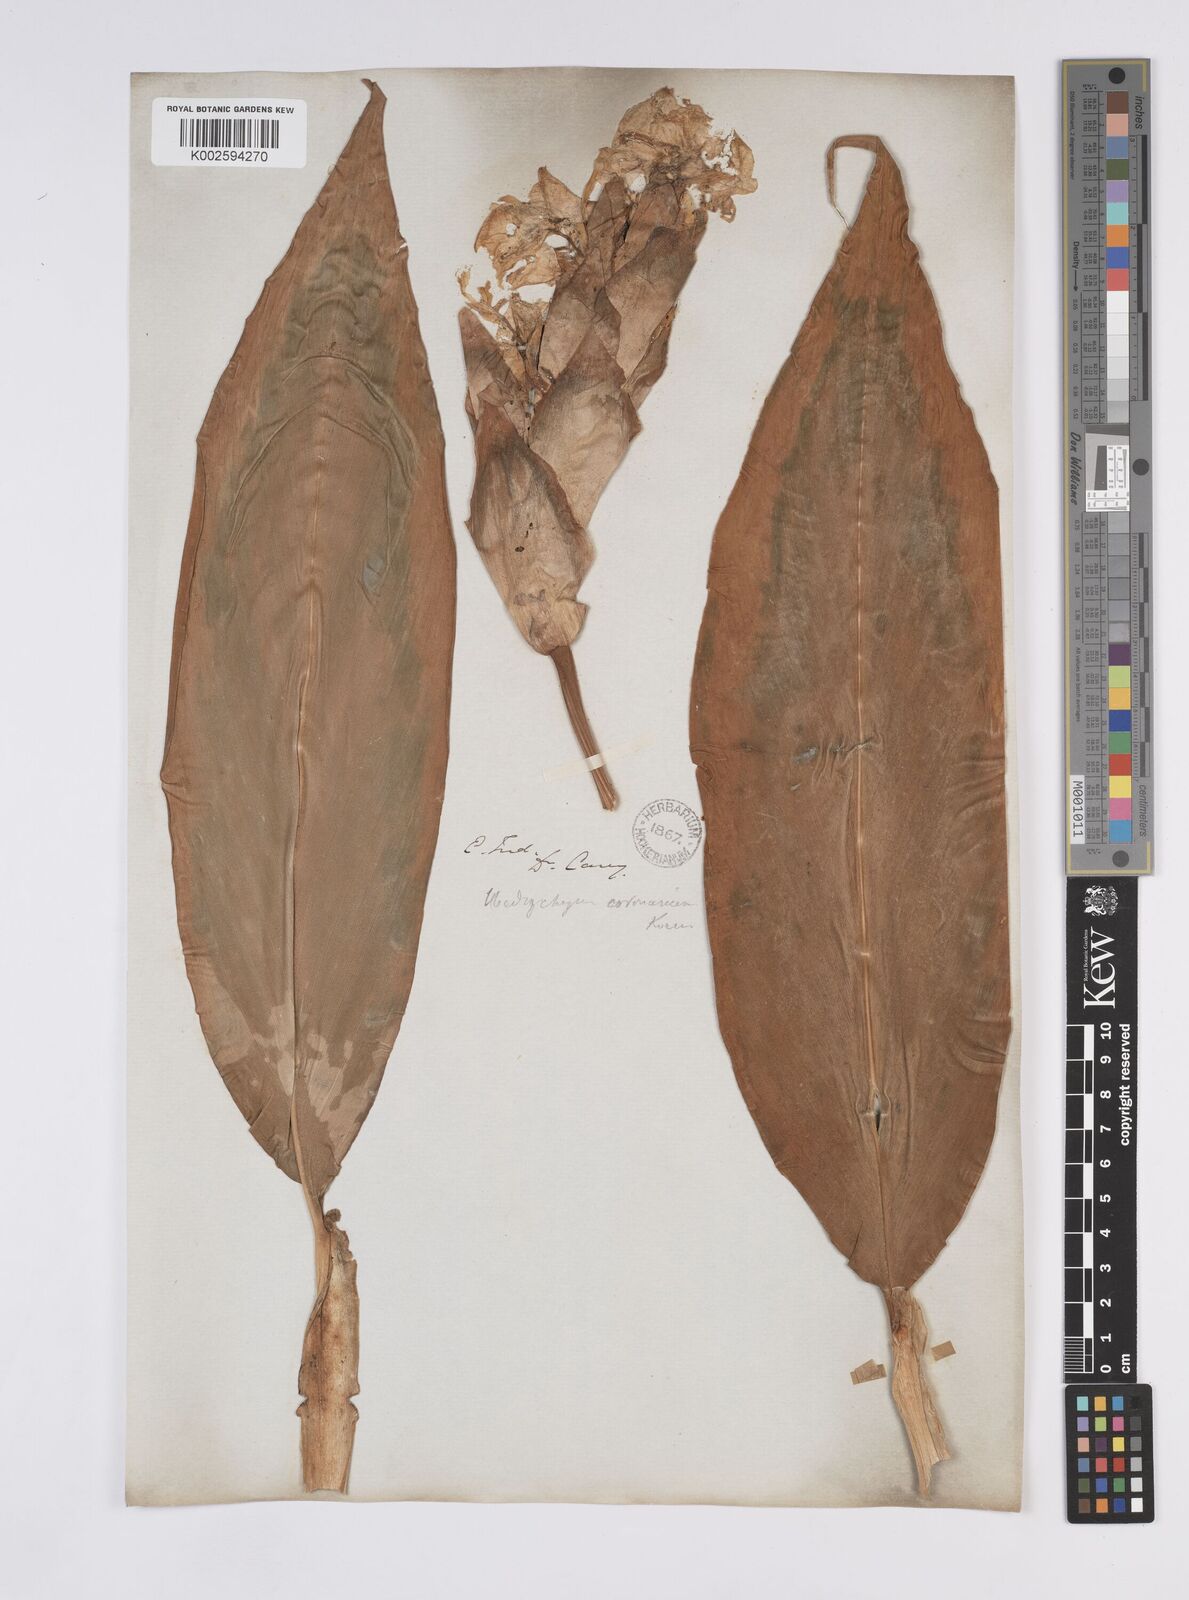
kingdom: Plantae
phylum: Tracheophyta
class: Liliopsida
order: Zingiberales
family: Zingiberaceae
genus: Hedychium
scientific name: Hedychium coronarium
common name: White garland-lily
